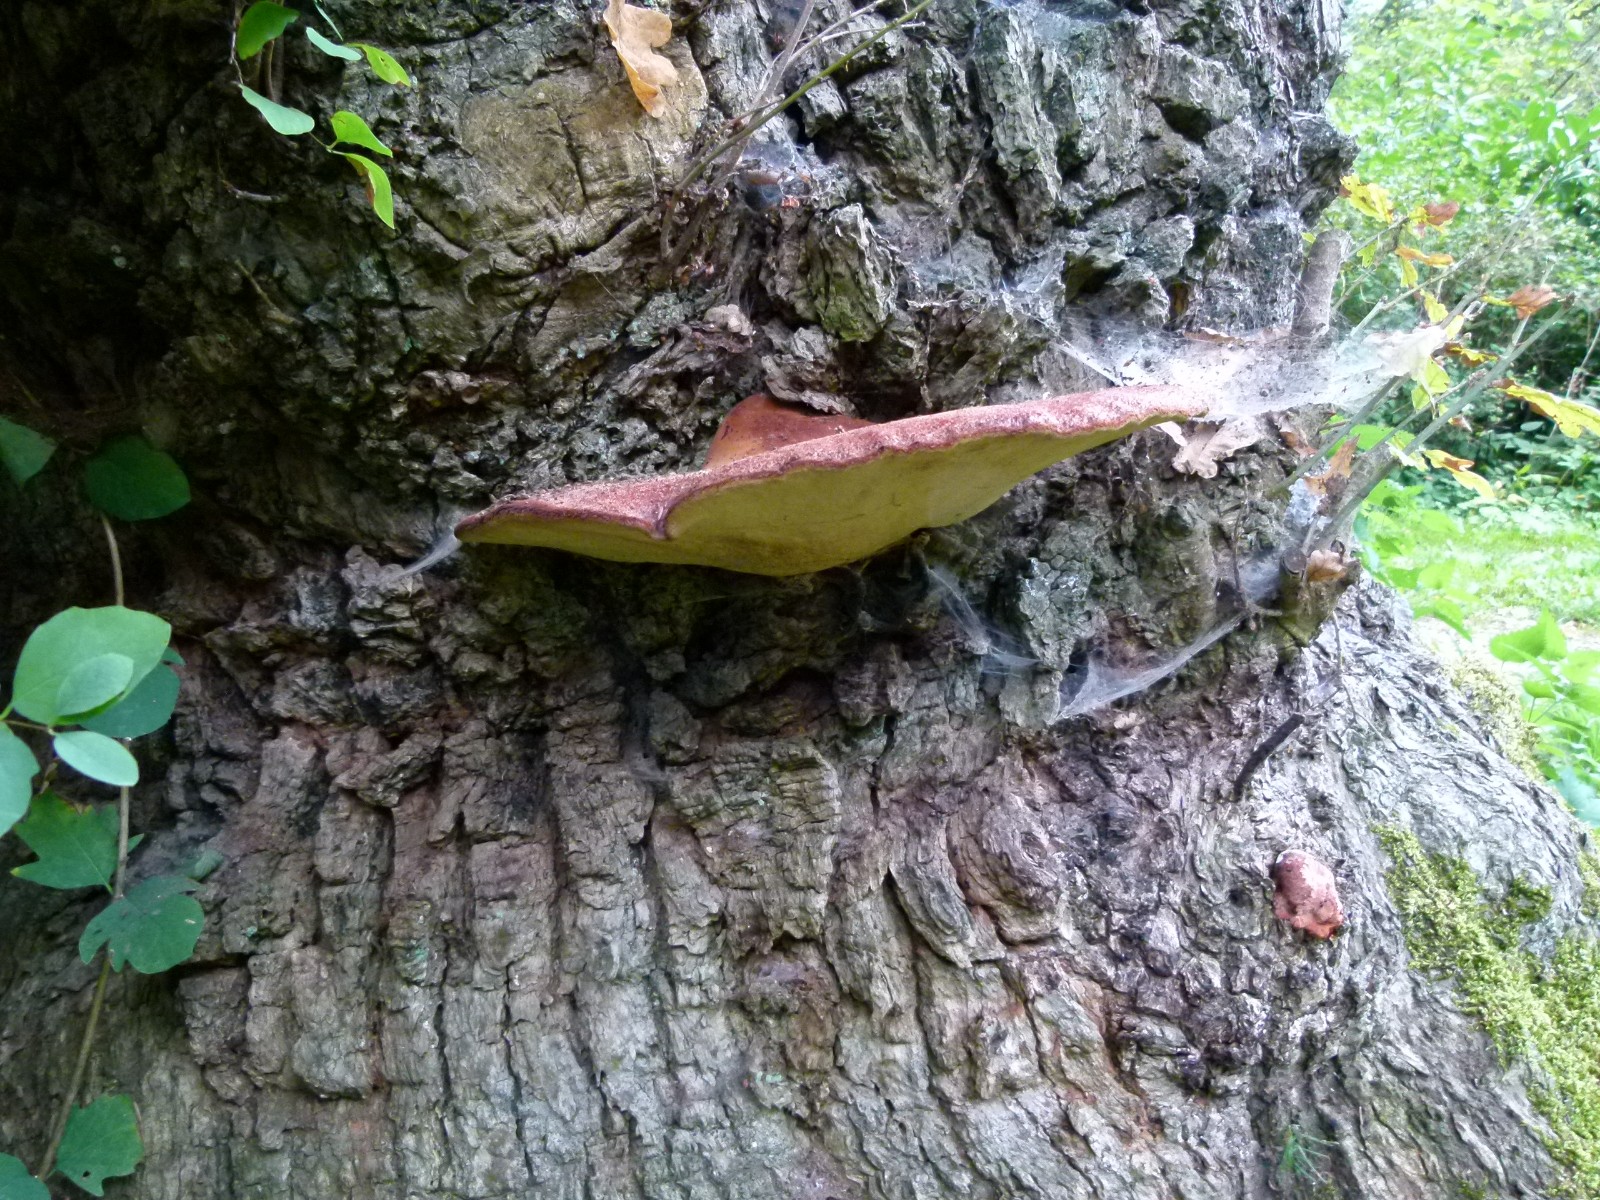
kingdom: Fungi
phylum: Basidiomycota
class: Agaricomycetes
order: Agaricales
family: Fistulinaceae
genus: Fistulina
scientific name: Fistulina hepatica
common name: oksetunge
